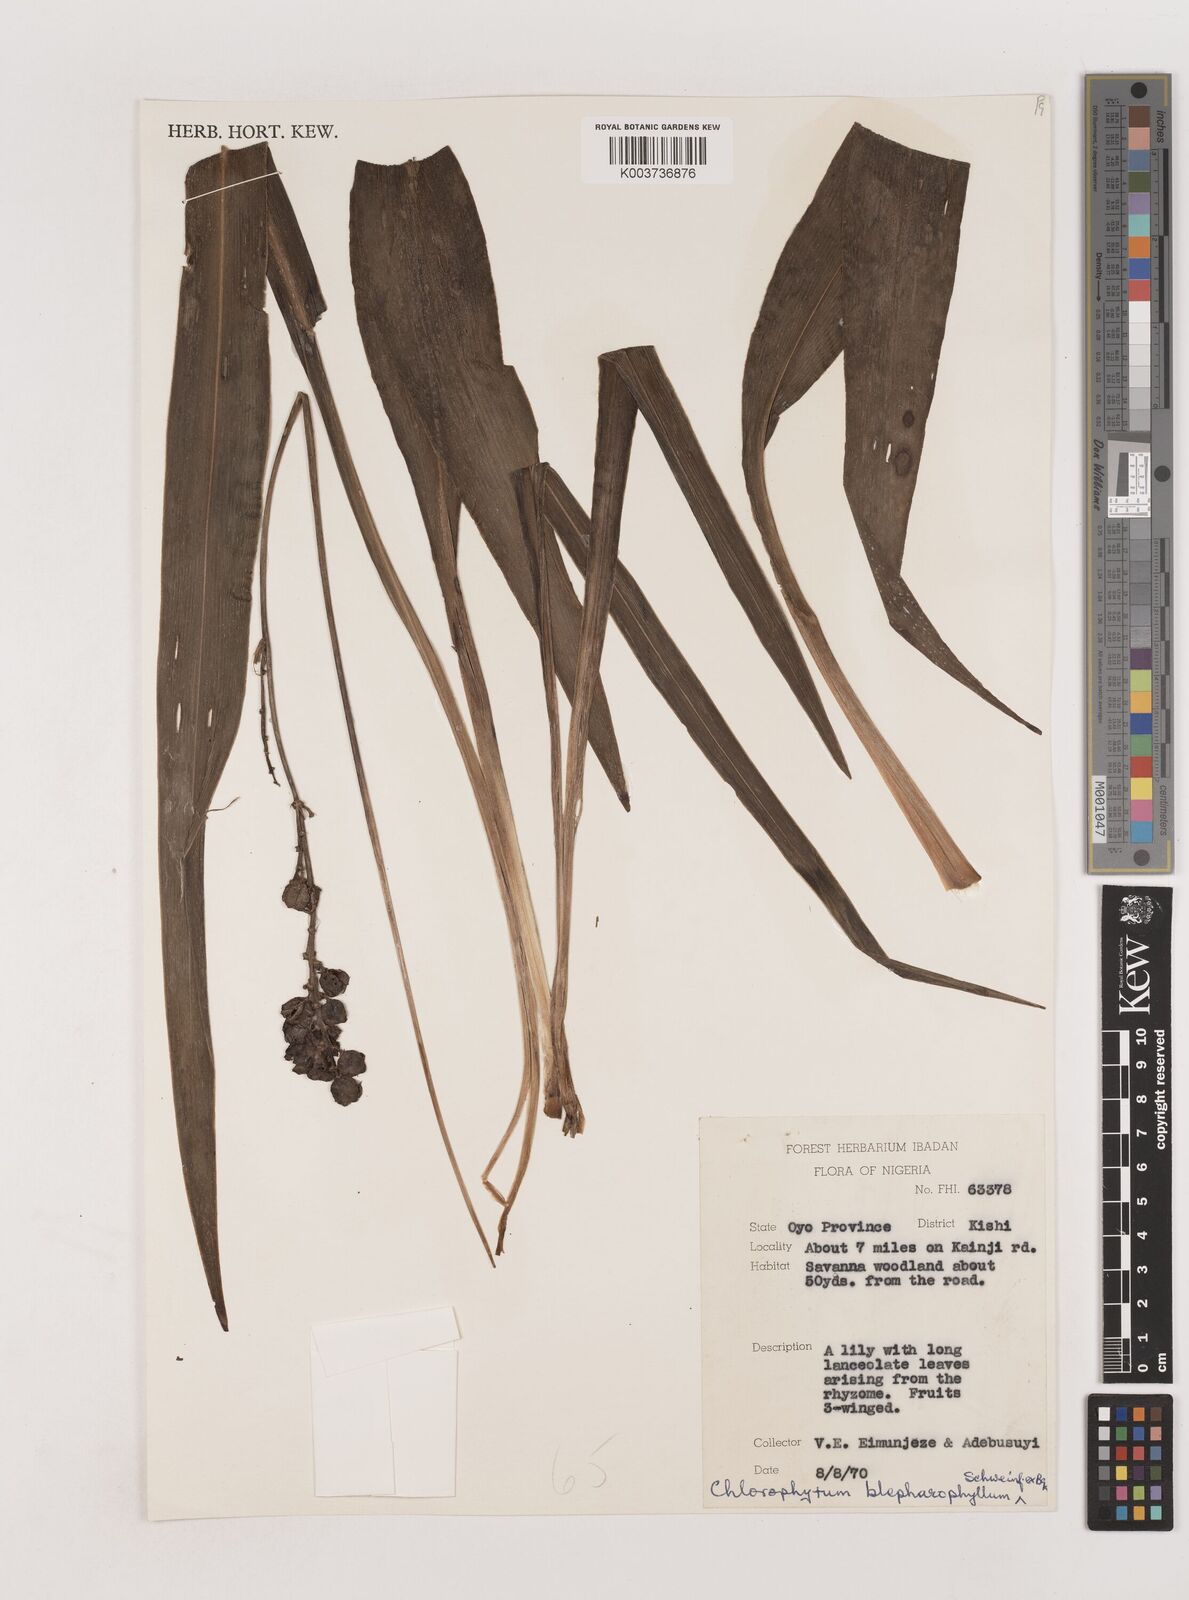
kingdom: Plantae
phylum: Tracheophyta
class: Liliopsida
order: Asparagales
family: Asparagaceae
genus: Chlorophytum
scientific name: Chlorophytum blepharophyllum
